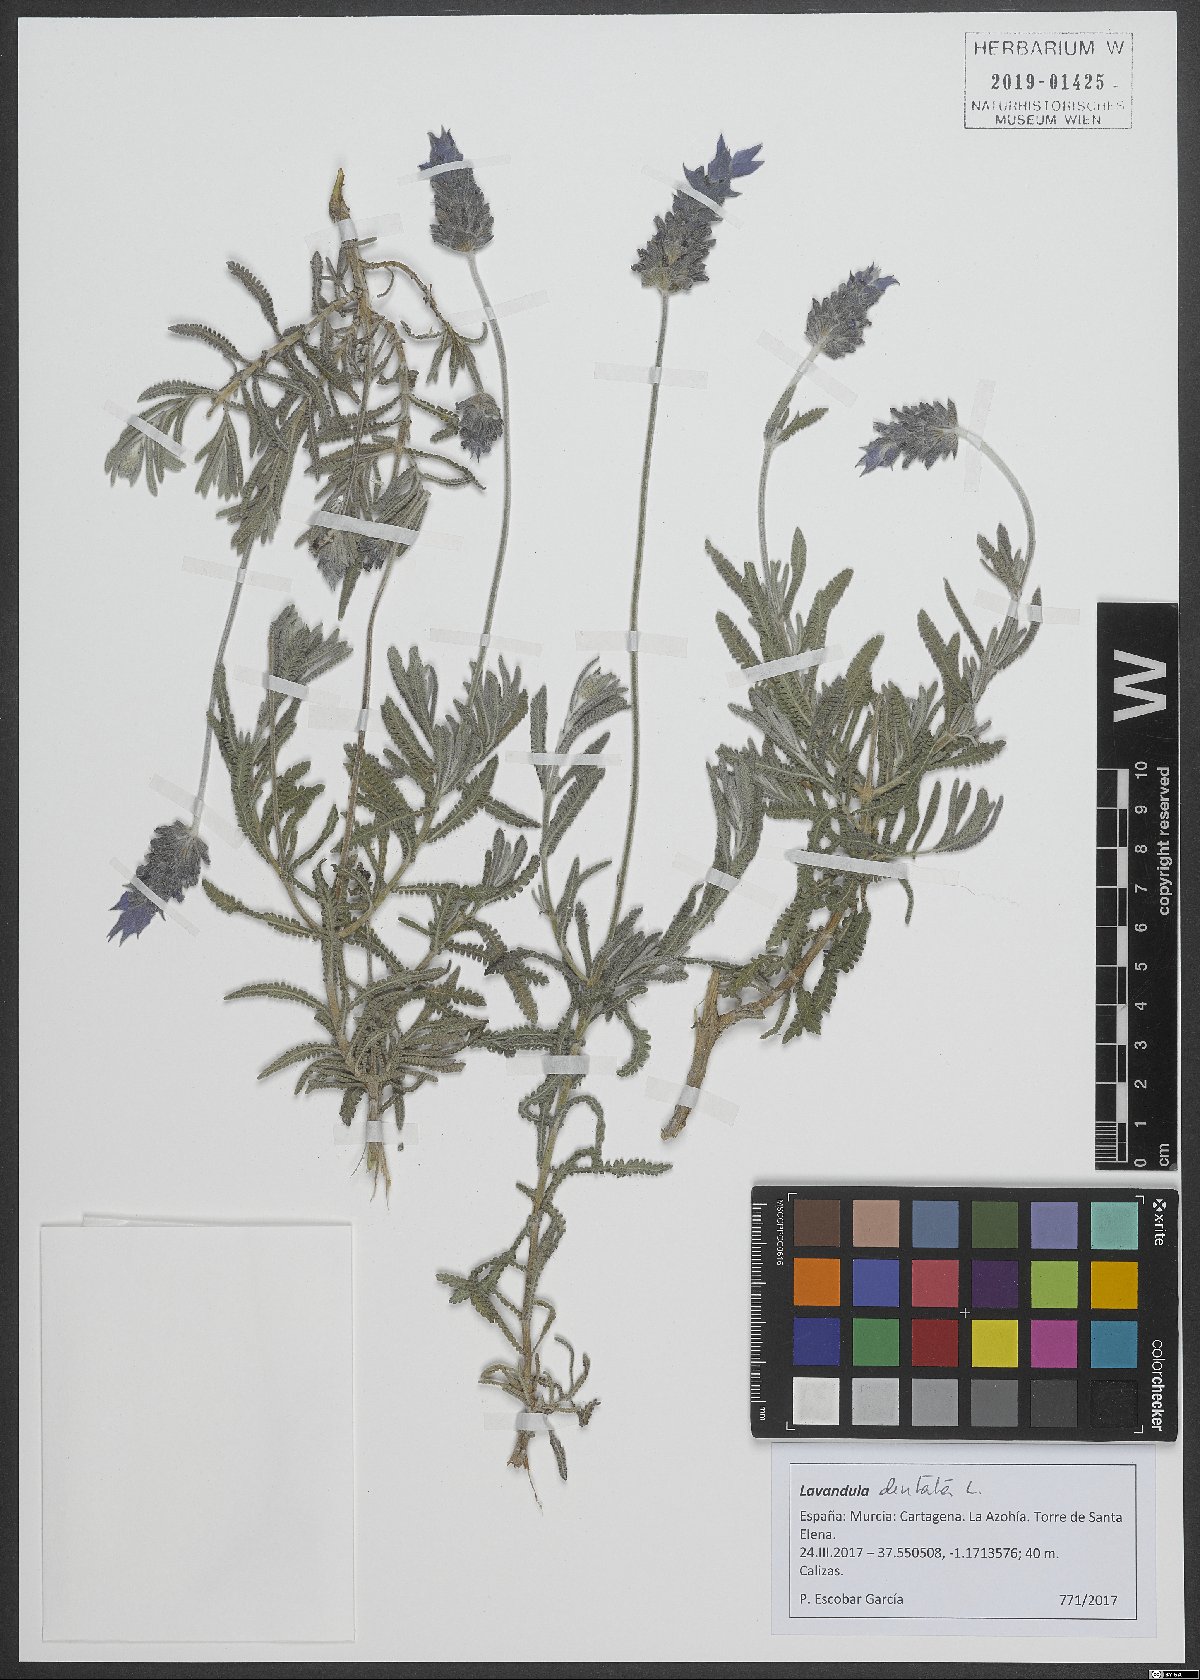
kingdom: Plantae
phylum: Tracheophyta
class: Magnoliopsida
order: Lamiales
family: Lamiaceae
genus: Lavandula
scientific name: Lavandula dentata
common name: French lavender
